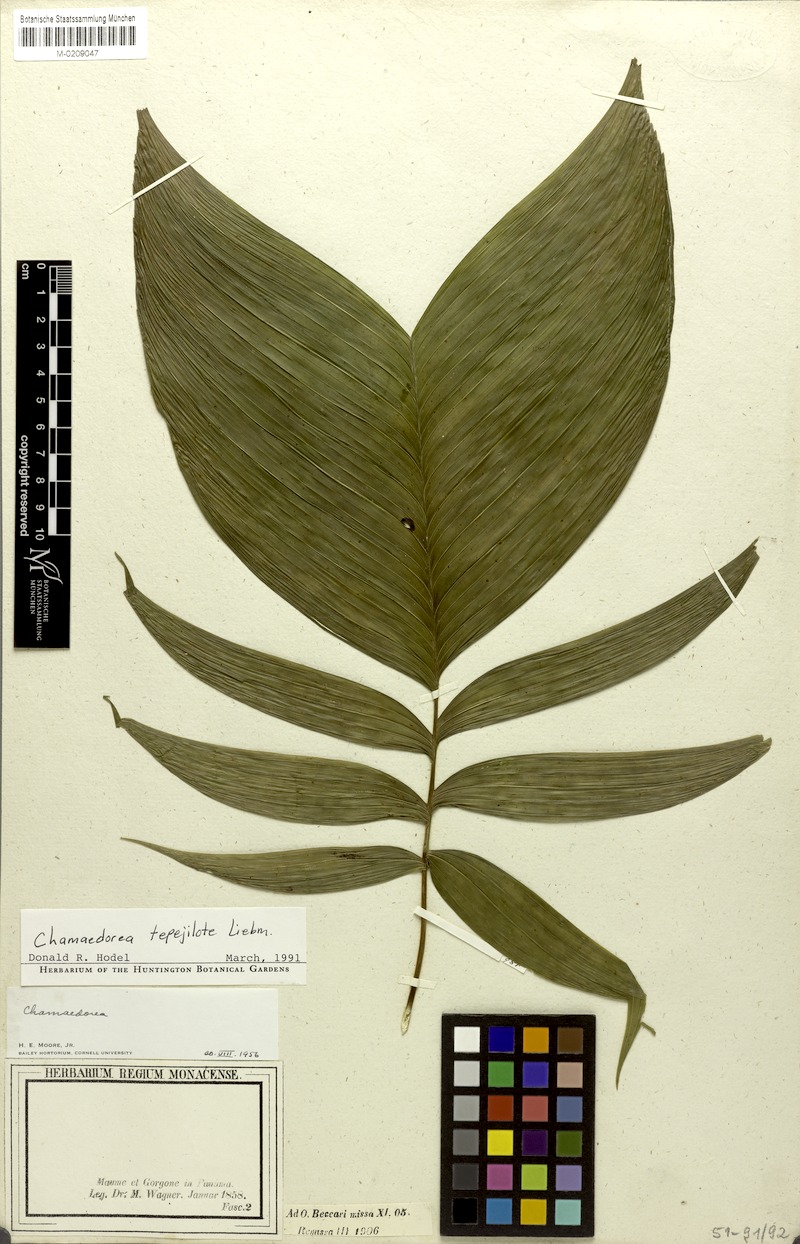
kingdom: Plantae
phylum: Tracheophyta
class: Liliopsida
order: Arecales
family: Arecaceae
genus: Chamaedorea
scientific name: Chamaedorea tepejilote
